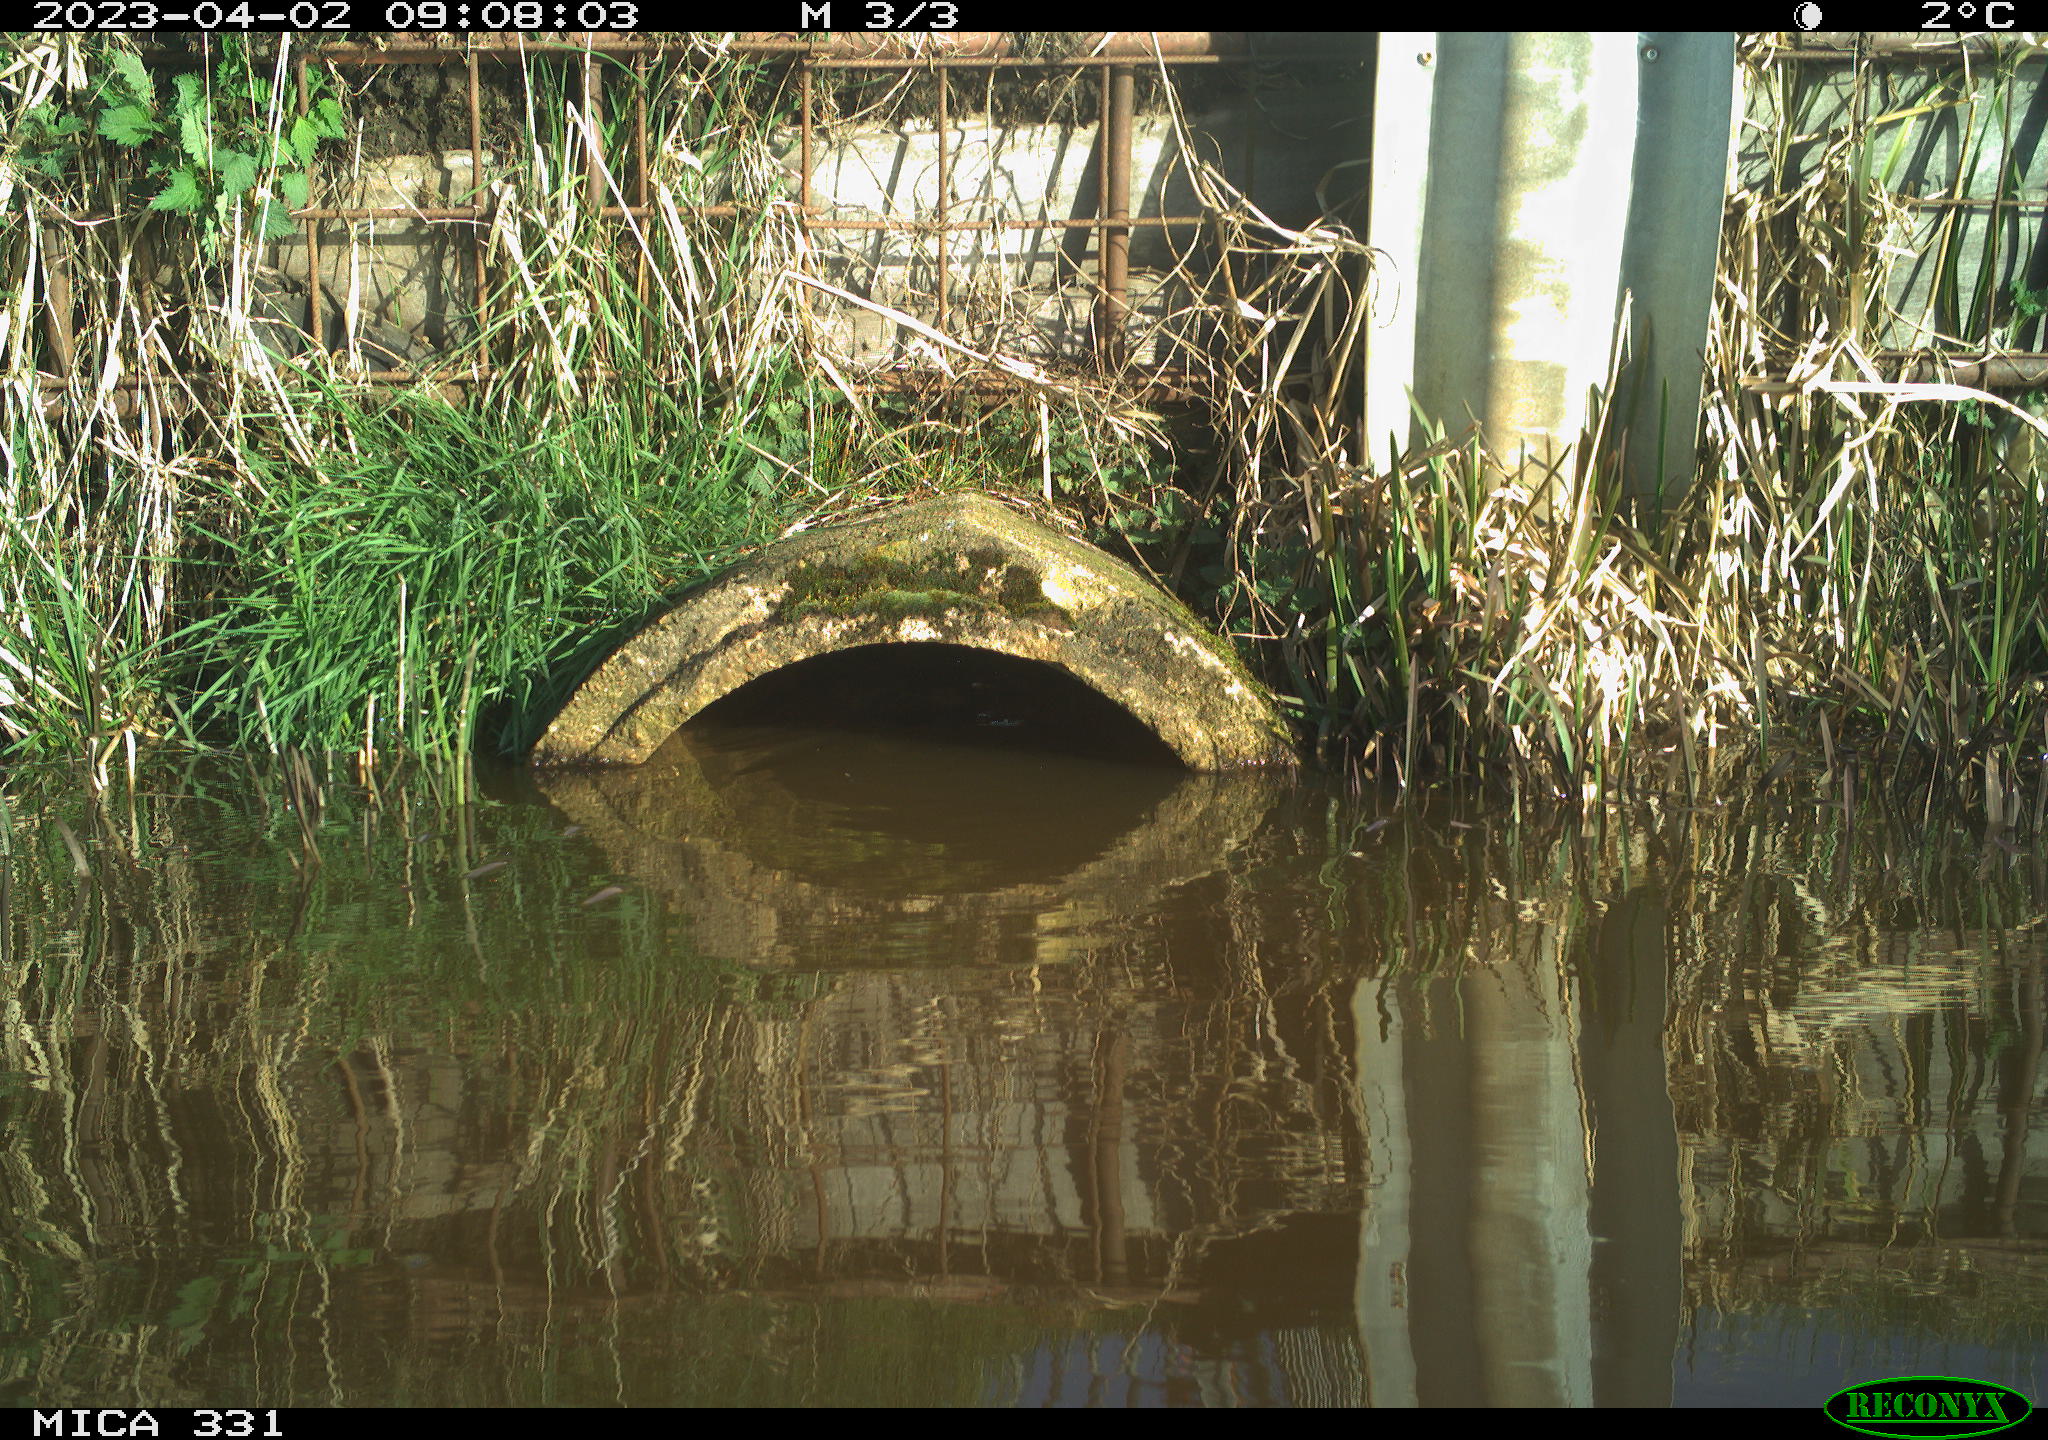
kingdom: Animalia
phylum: Chordata
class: Aves
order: Gruiformes
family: Rallidae
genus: Fulica
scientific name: Fulica atra
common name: Eurasian coot
